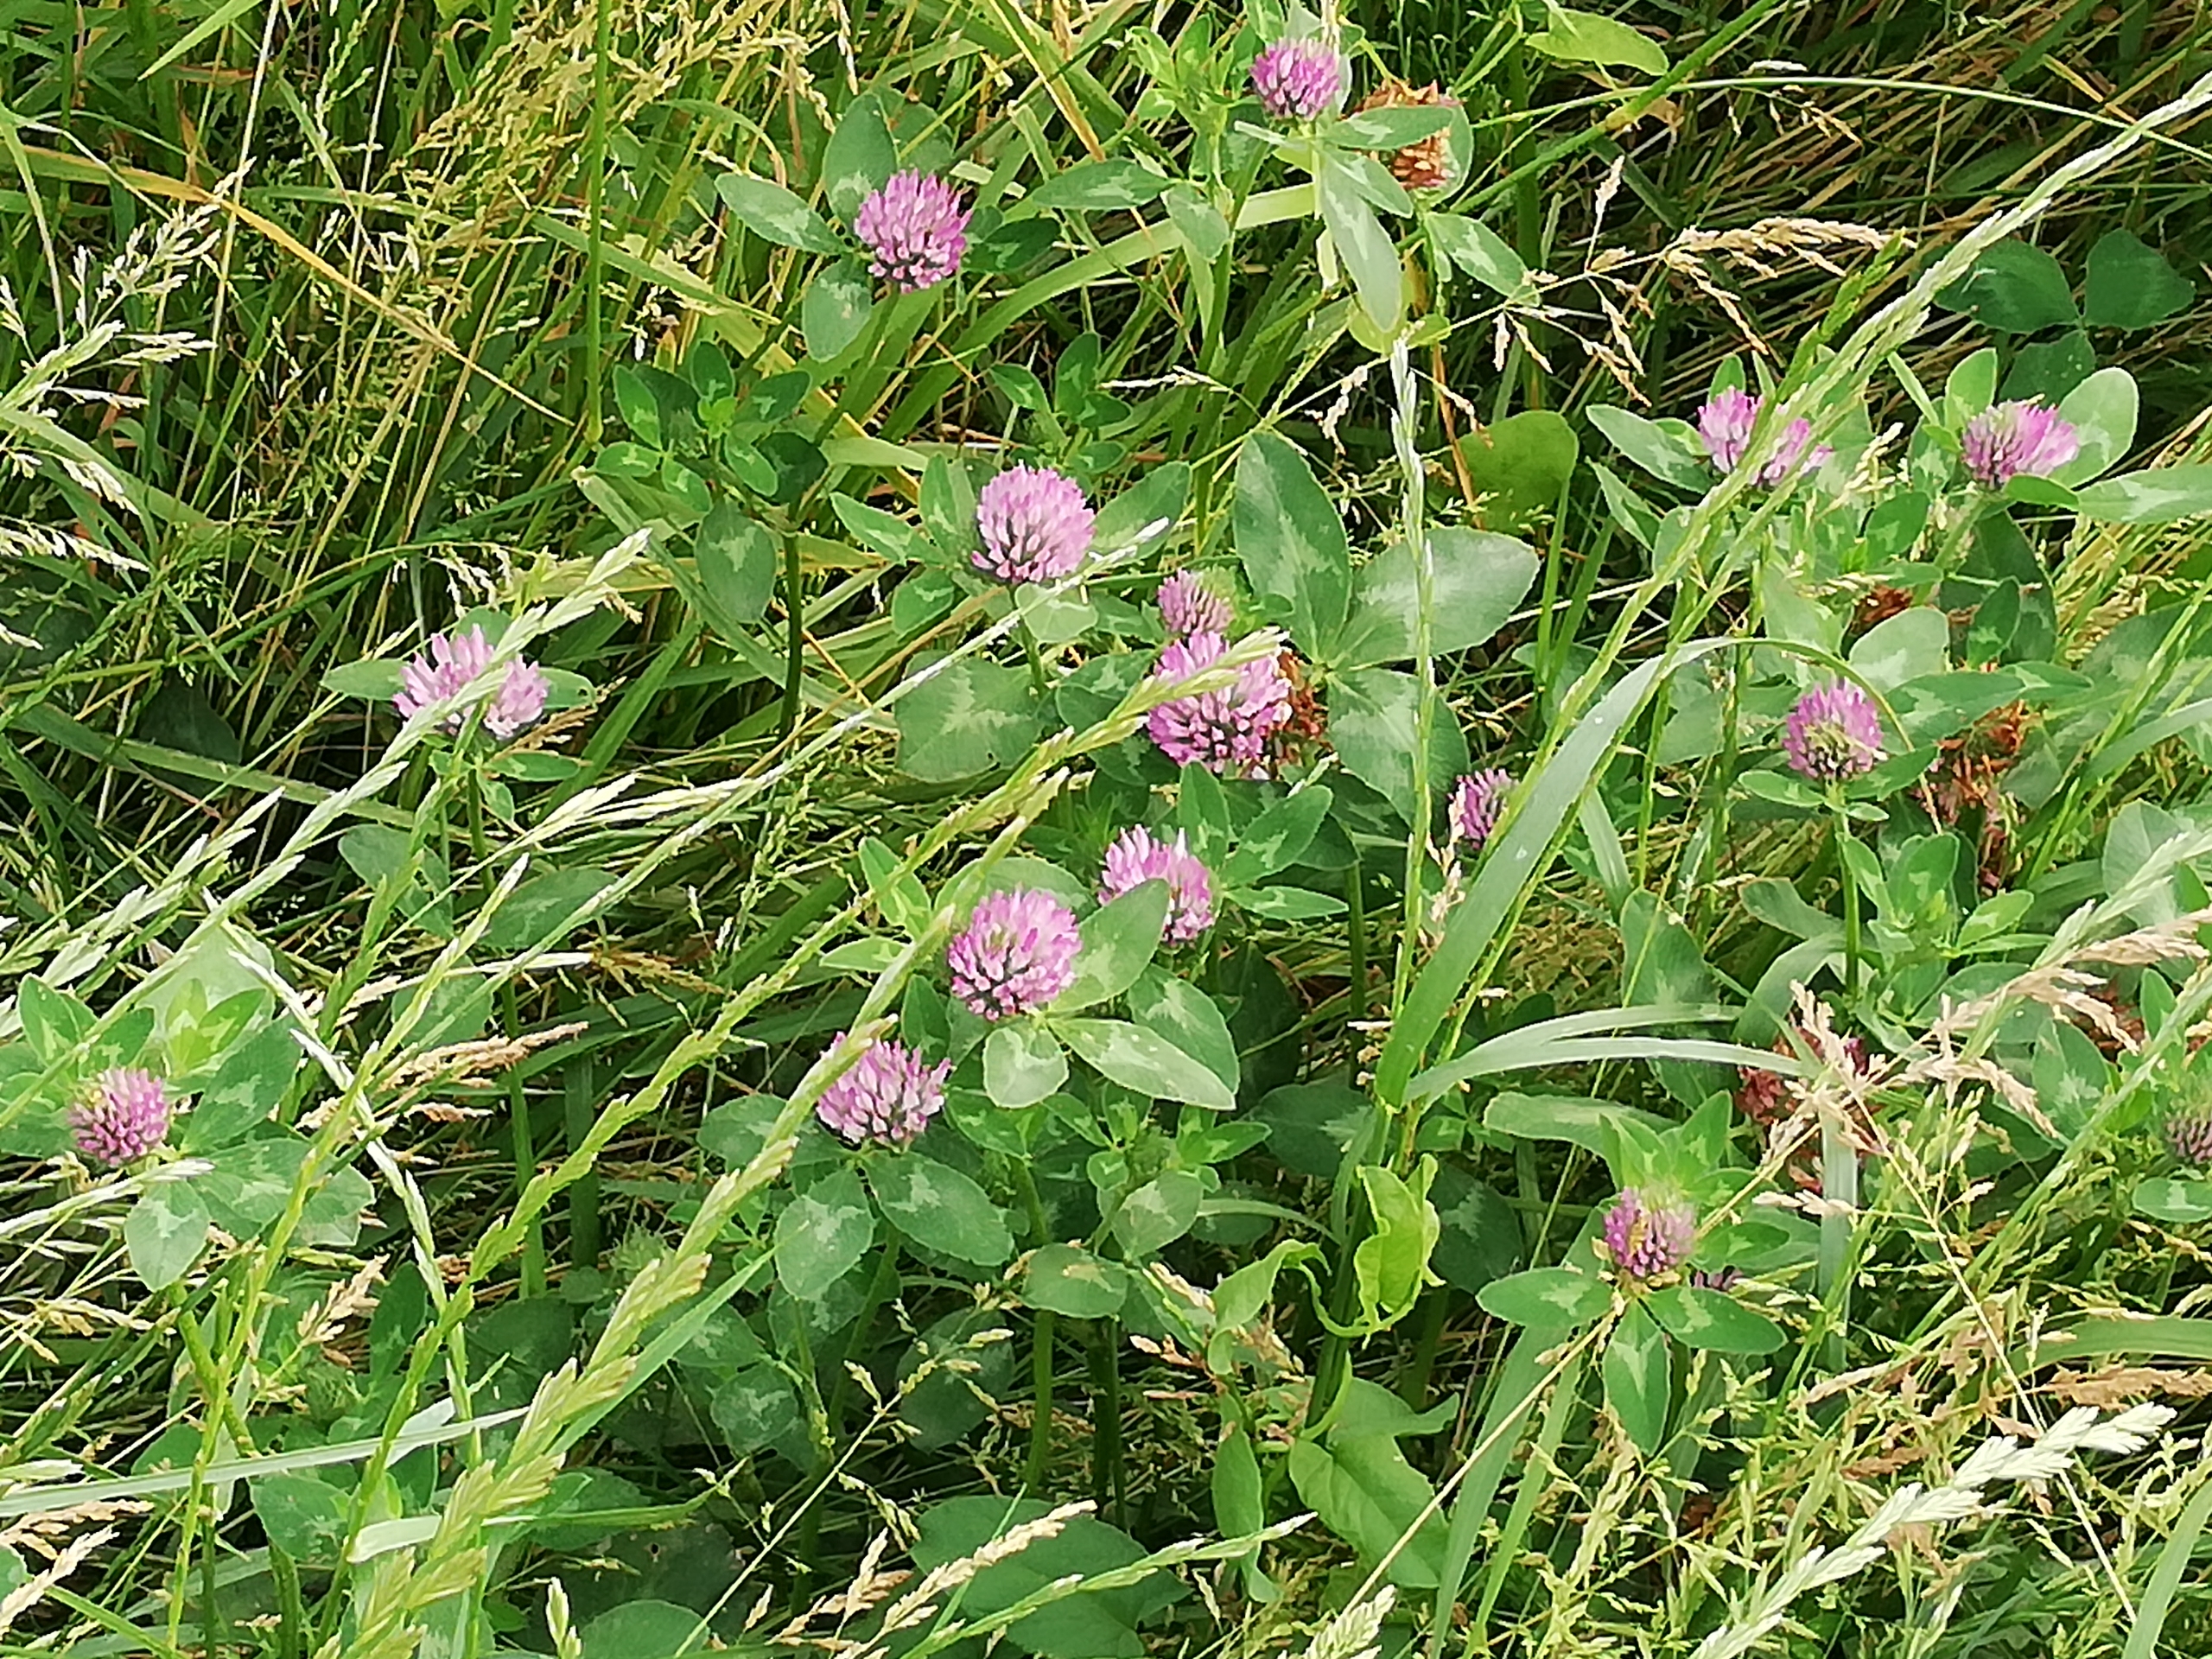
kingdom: Plantae
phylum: Tracheophyta
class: Magnoliopsida
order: Fabales
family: Fabaceae
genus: Trifolium
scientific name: Trifolium pratense
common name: Rød-kløver
